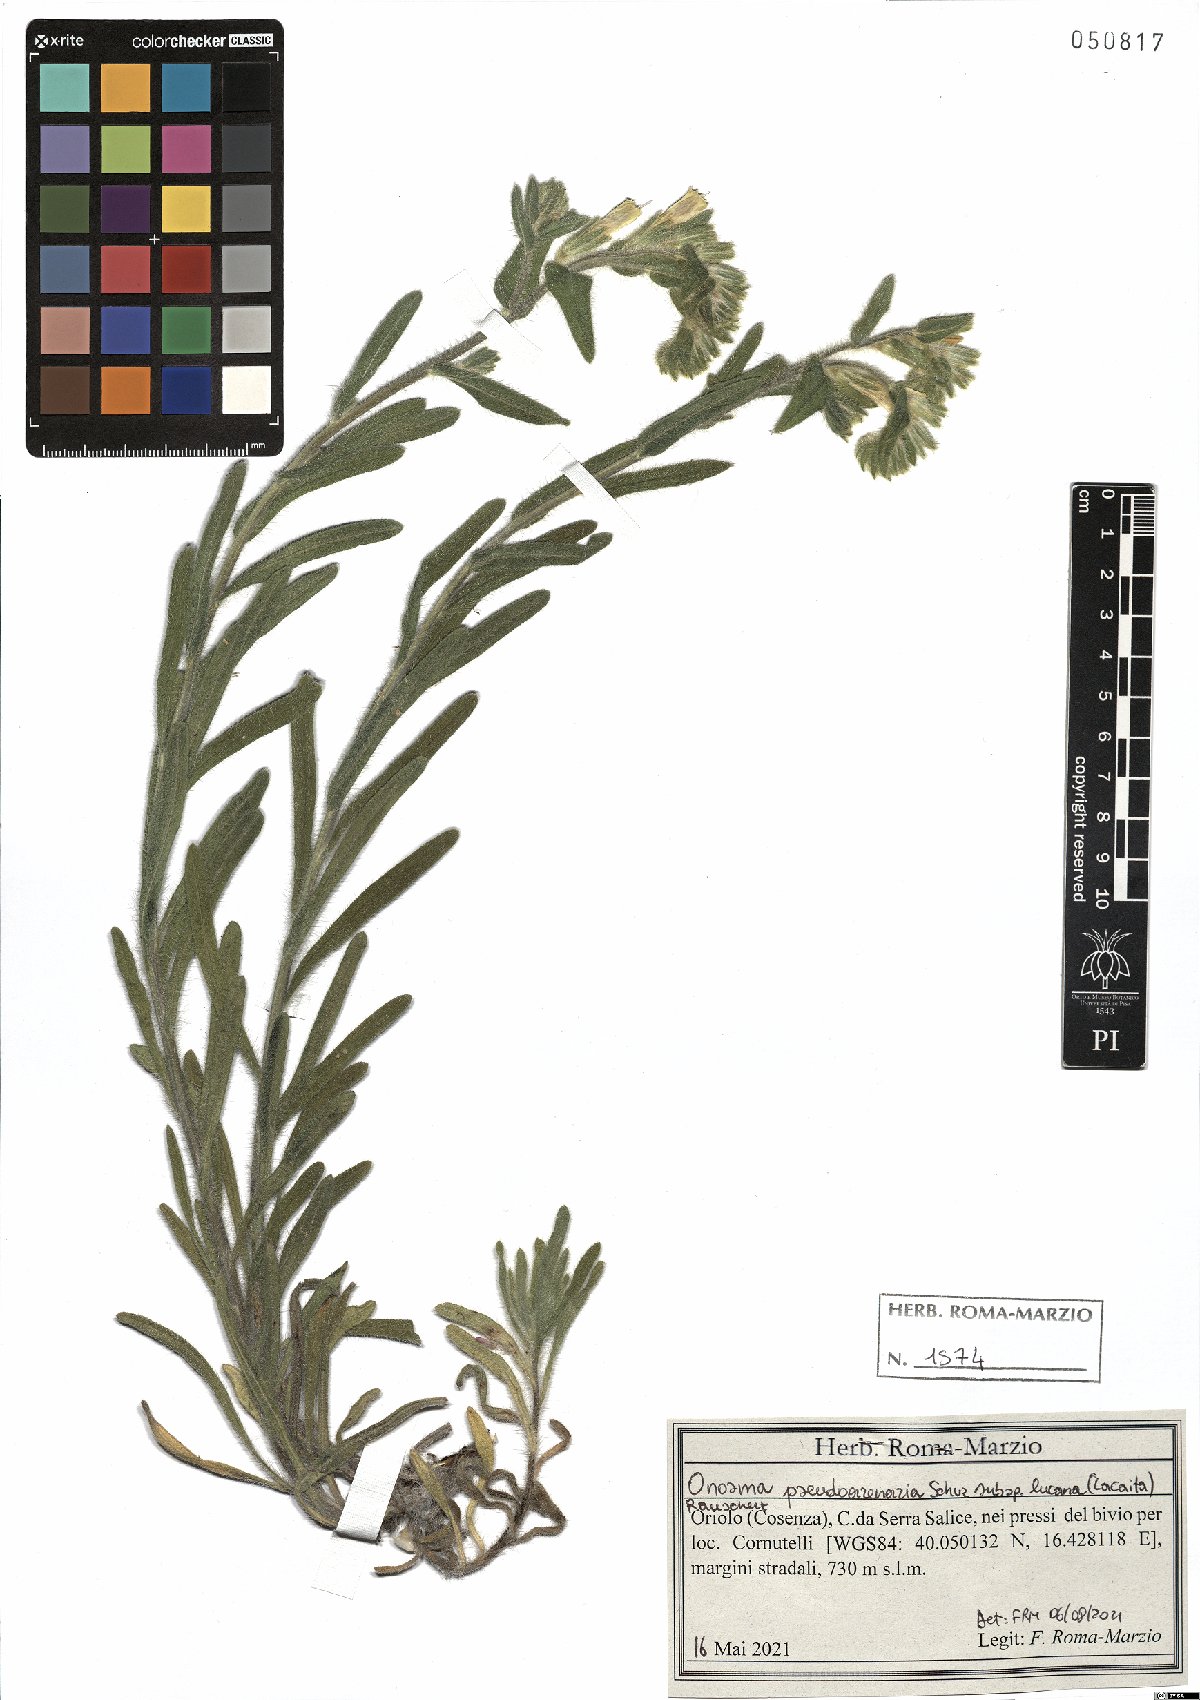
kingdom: Plantae
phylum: Tracheophyta
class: Magnoliopsida
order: Boraginales
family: Boraginaceae
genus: Onosma
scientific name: Onosma helvetica
